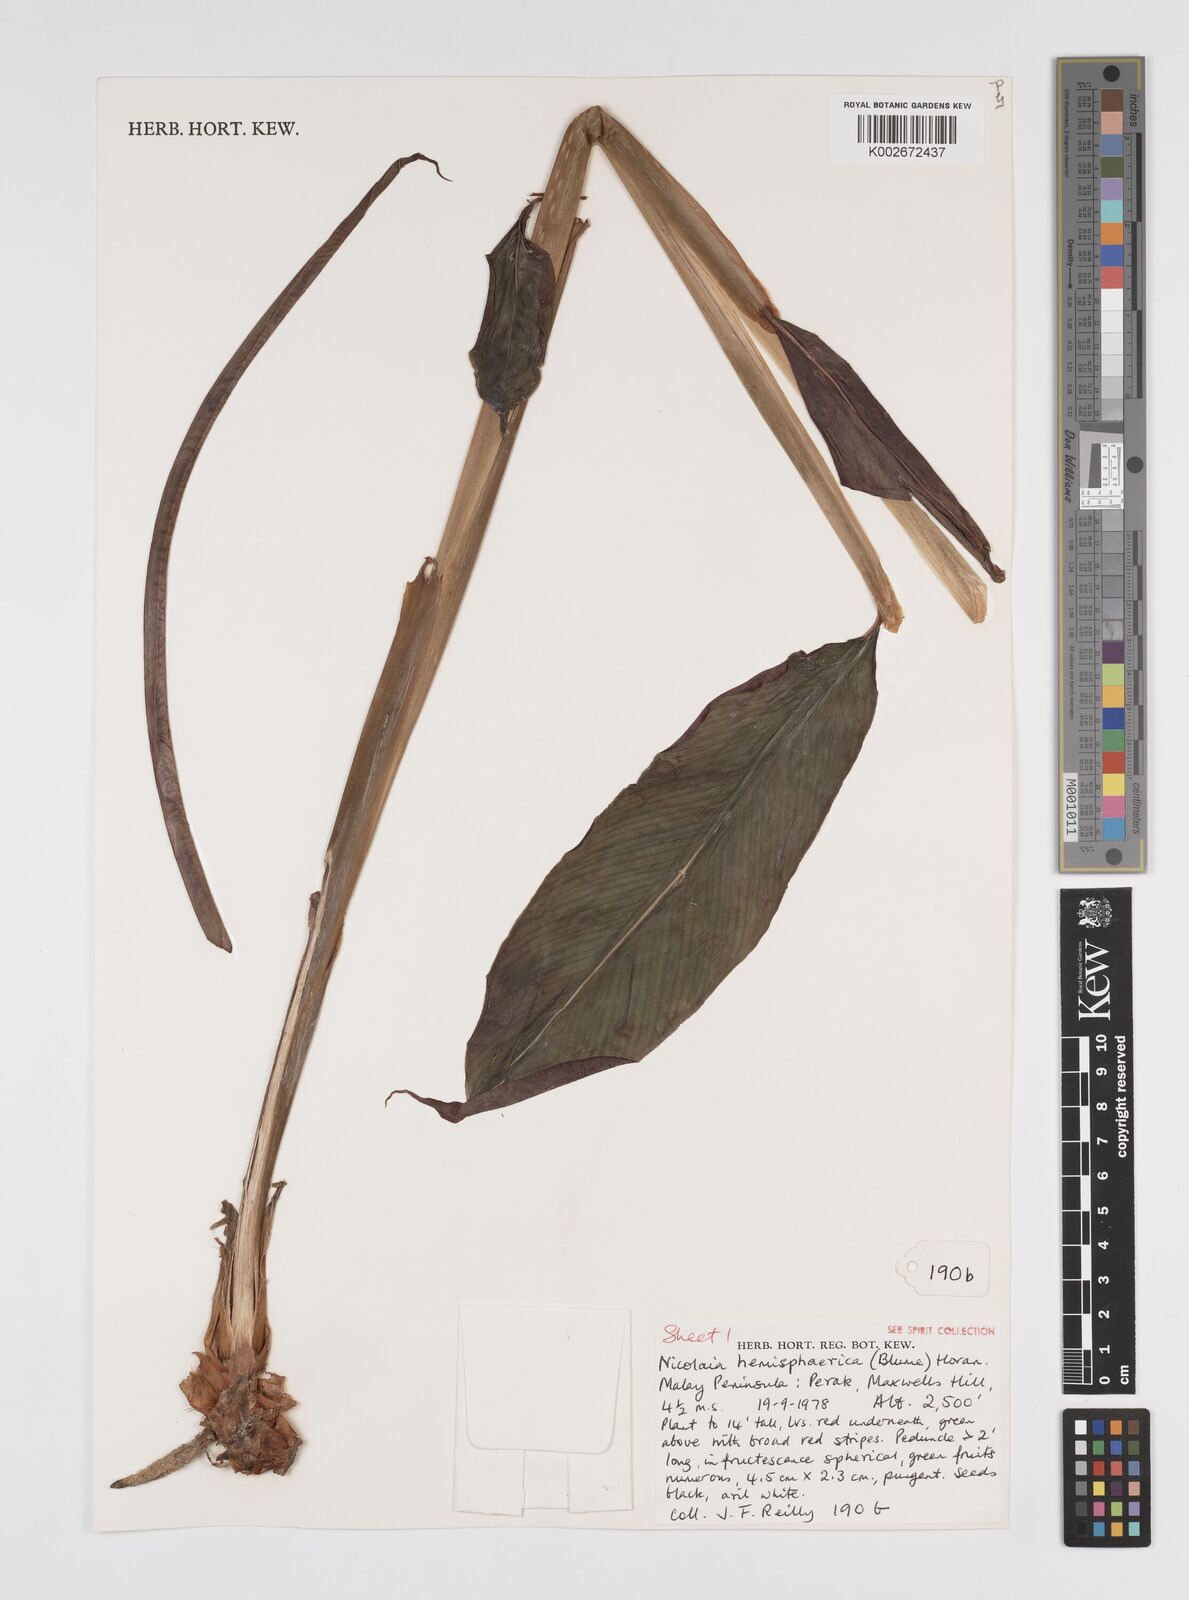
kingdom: Plantae
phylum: Tracheophyta
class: Liliopsida
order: Zingiberales
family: Zingiberaceae
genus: Etlingera
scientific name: Etlingera fulgens
